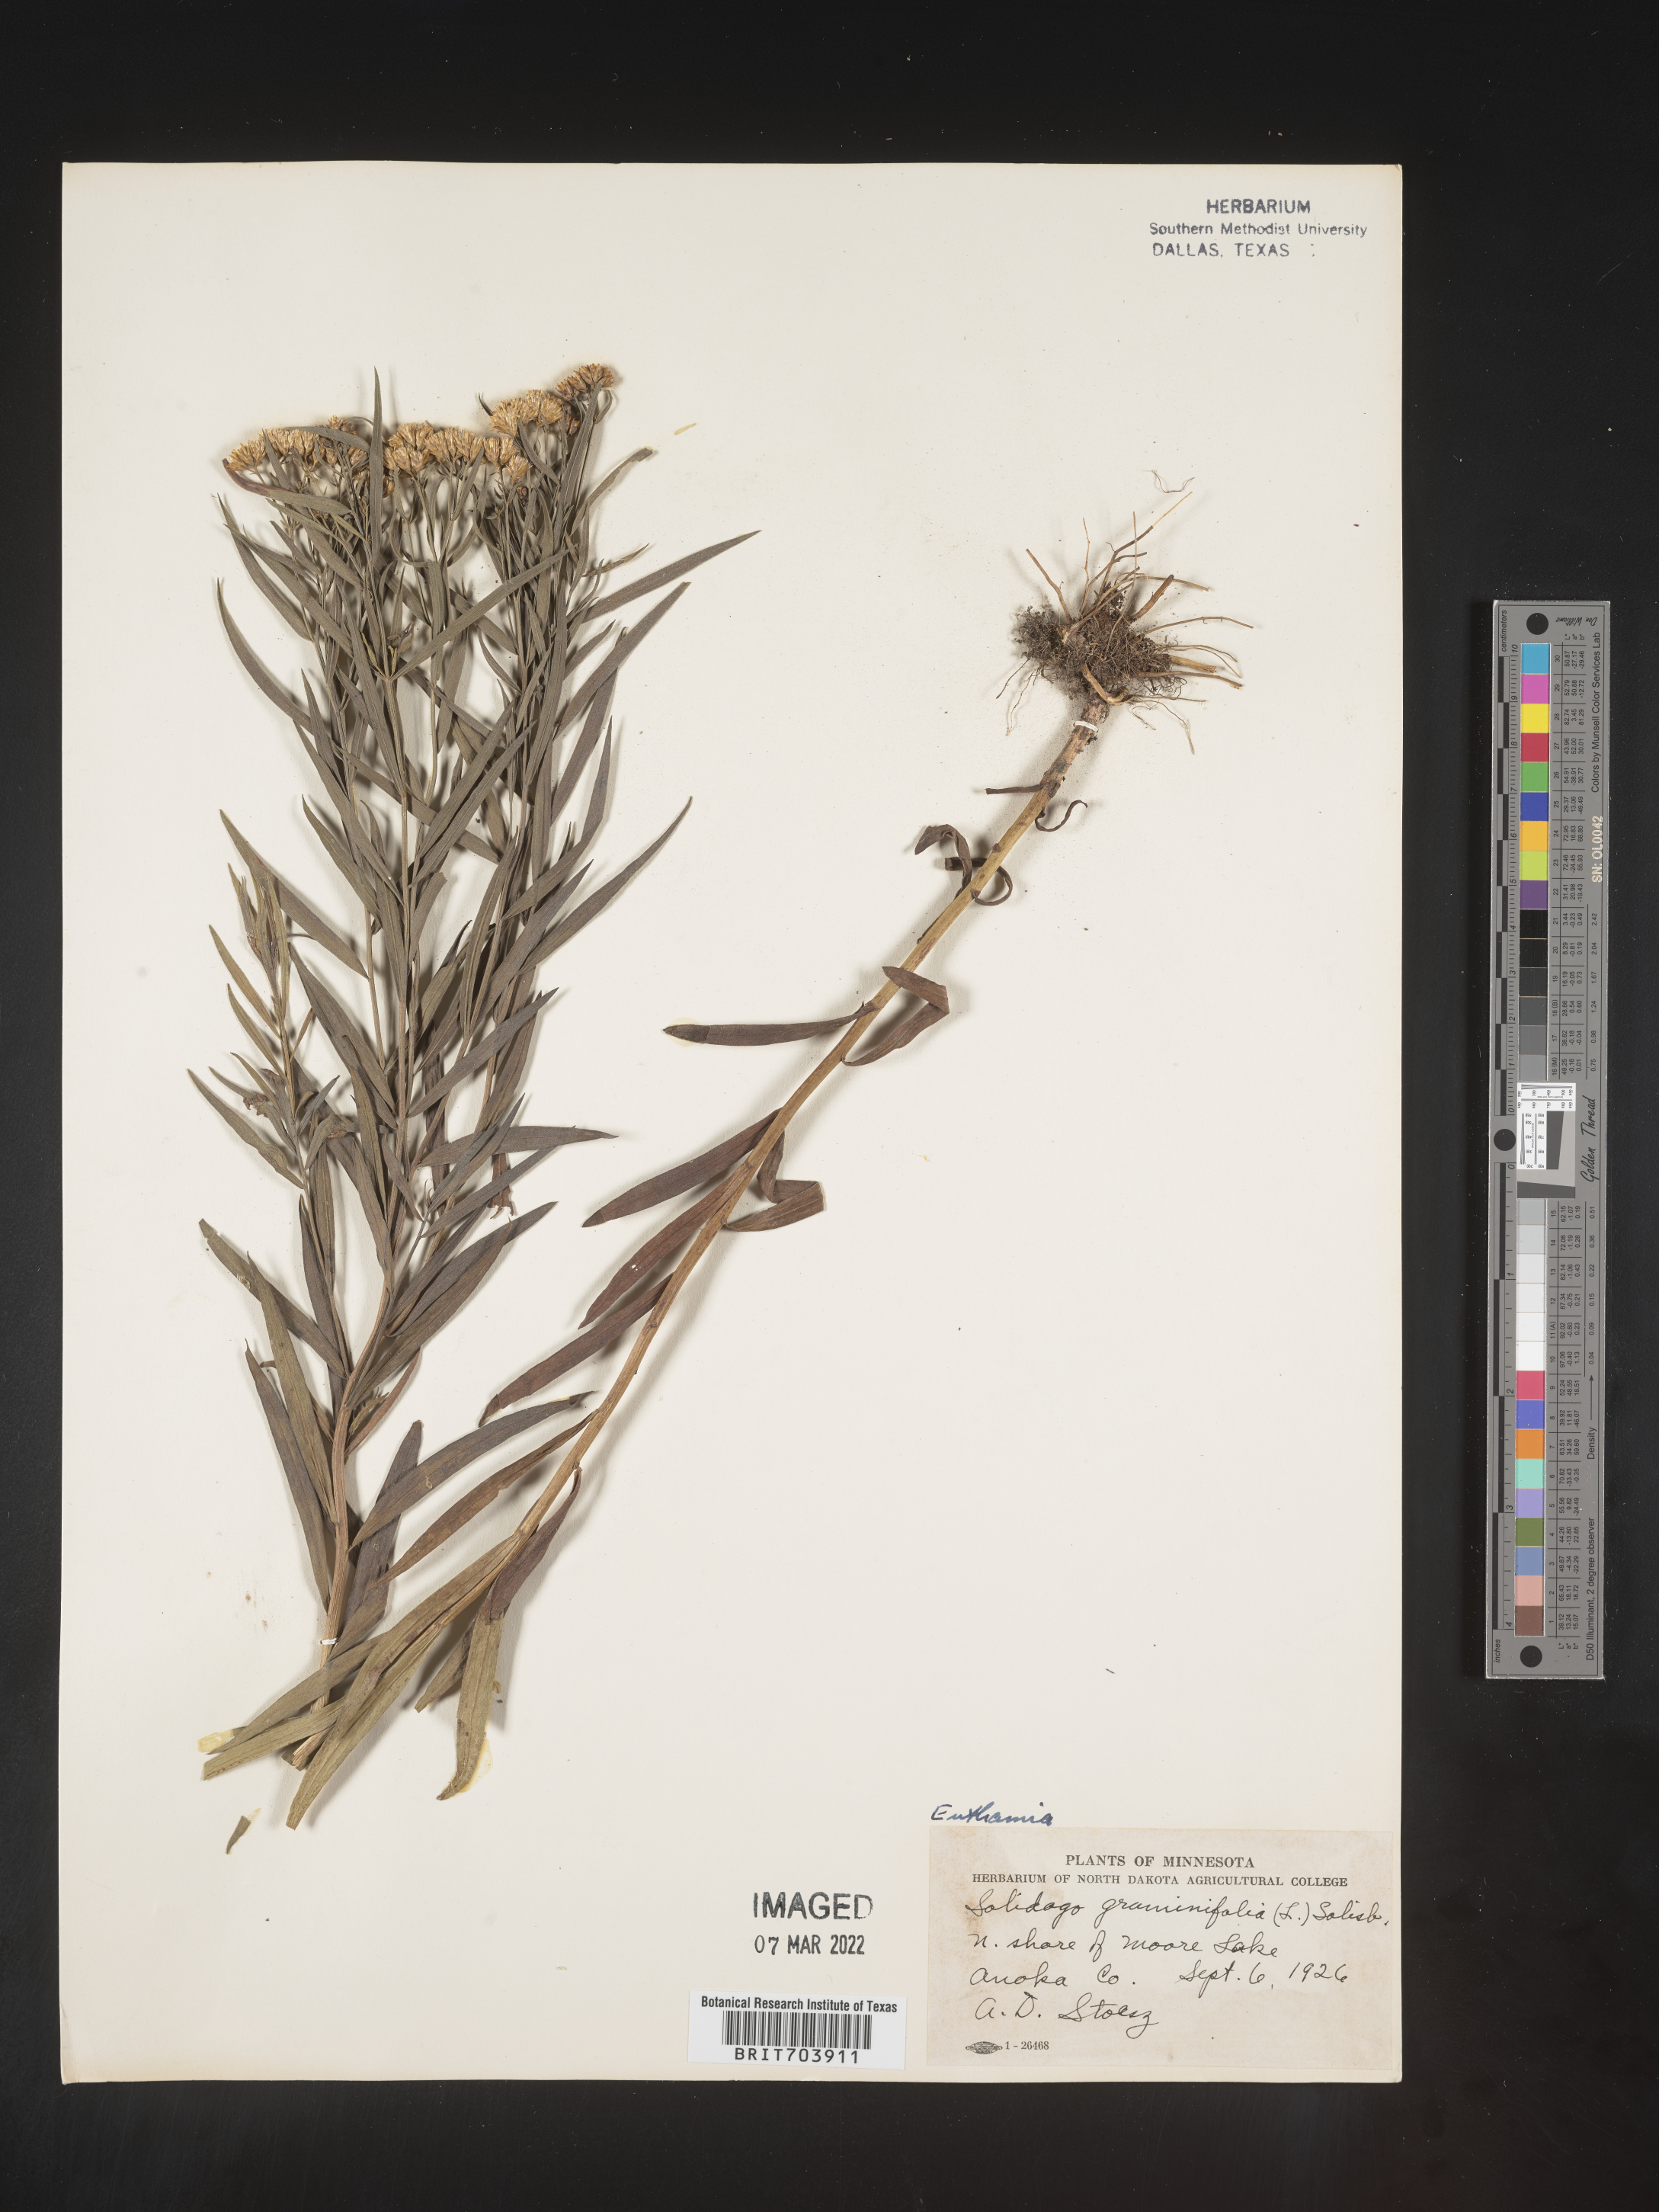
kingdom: Plantae
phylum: Tracheophyta
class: Magnoliopsida
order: Asterales
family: Asteraceae
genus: Euthamia
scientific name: Euthamia graminifolia
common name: Common goldentop
